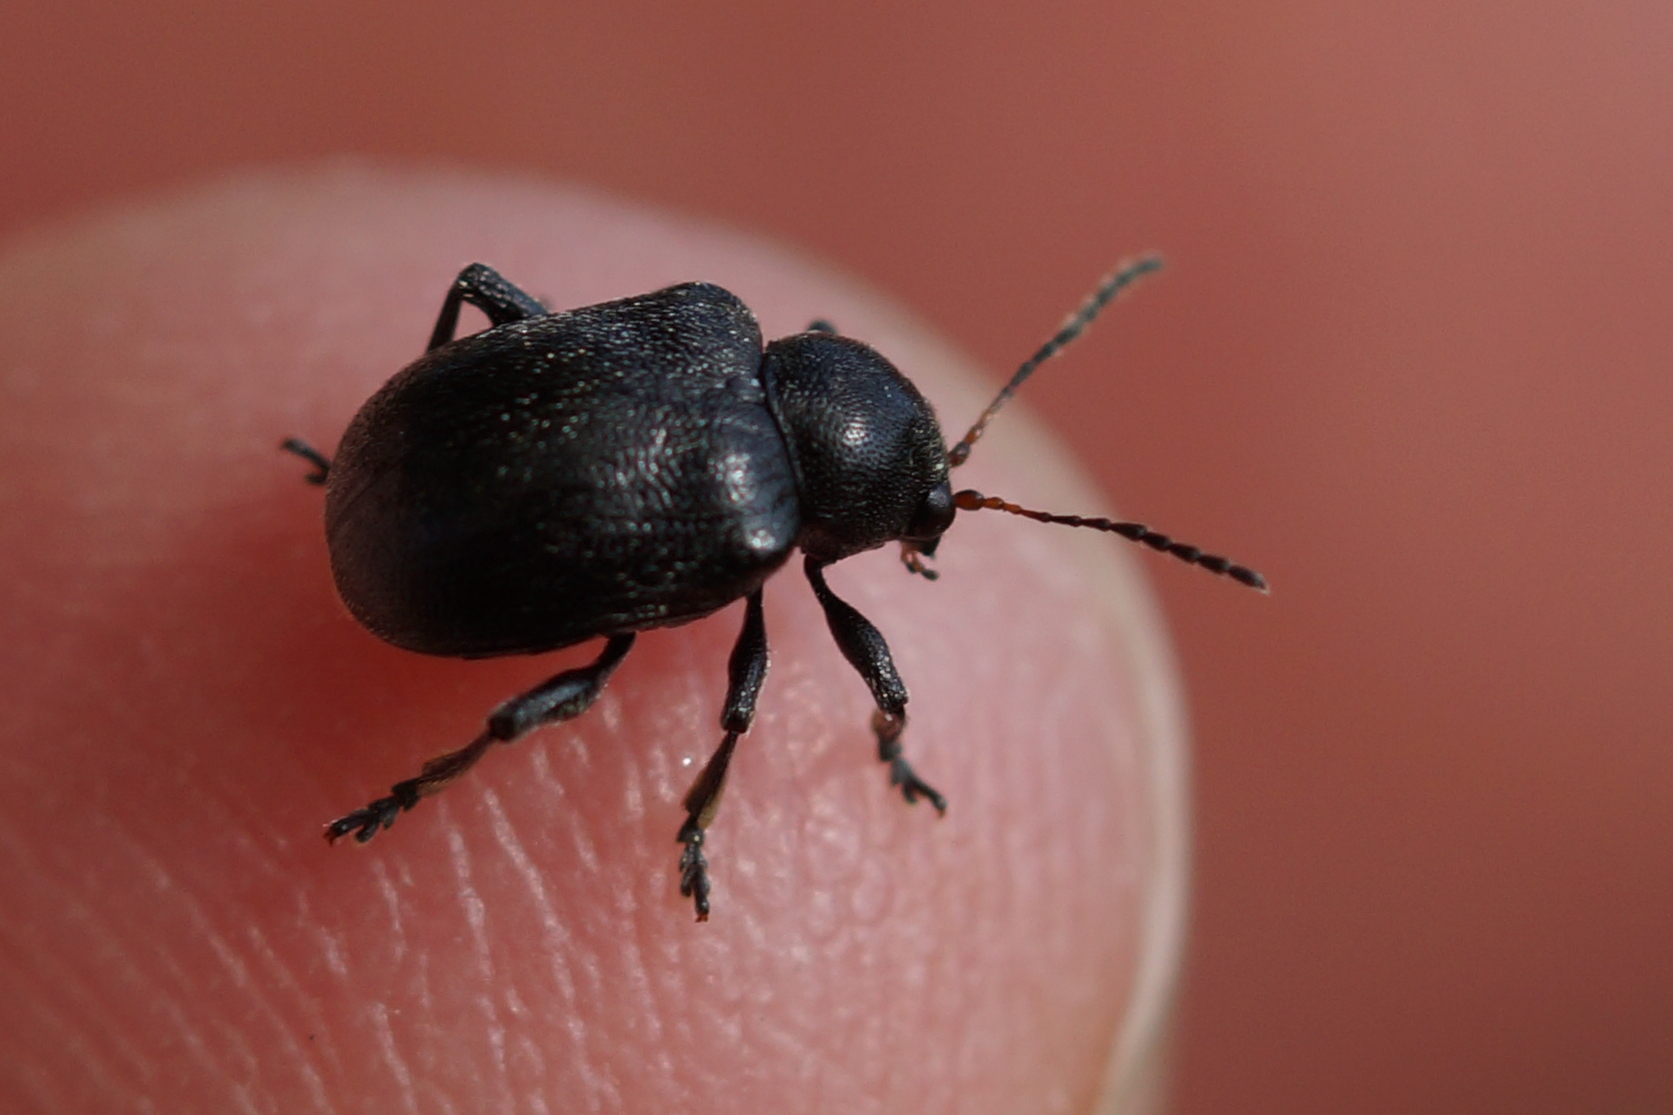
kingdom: Animalia
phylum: Arthropoda
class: Insecta
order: Coleoptera
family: Chrysomelidae
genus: Bromius
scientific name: Bromius obscurus
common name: Gederamsbille
